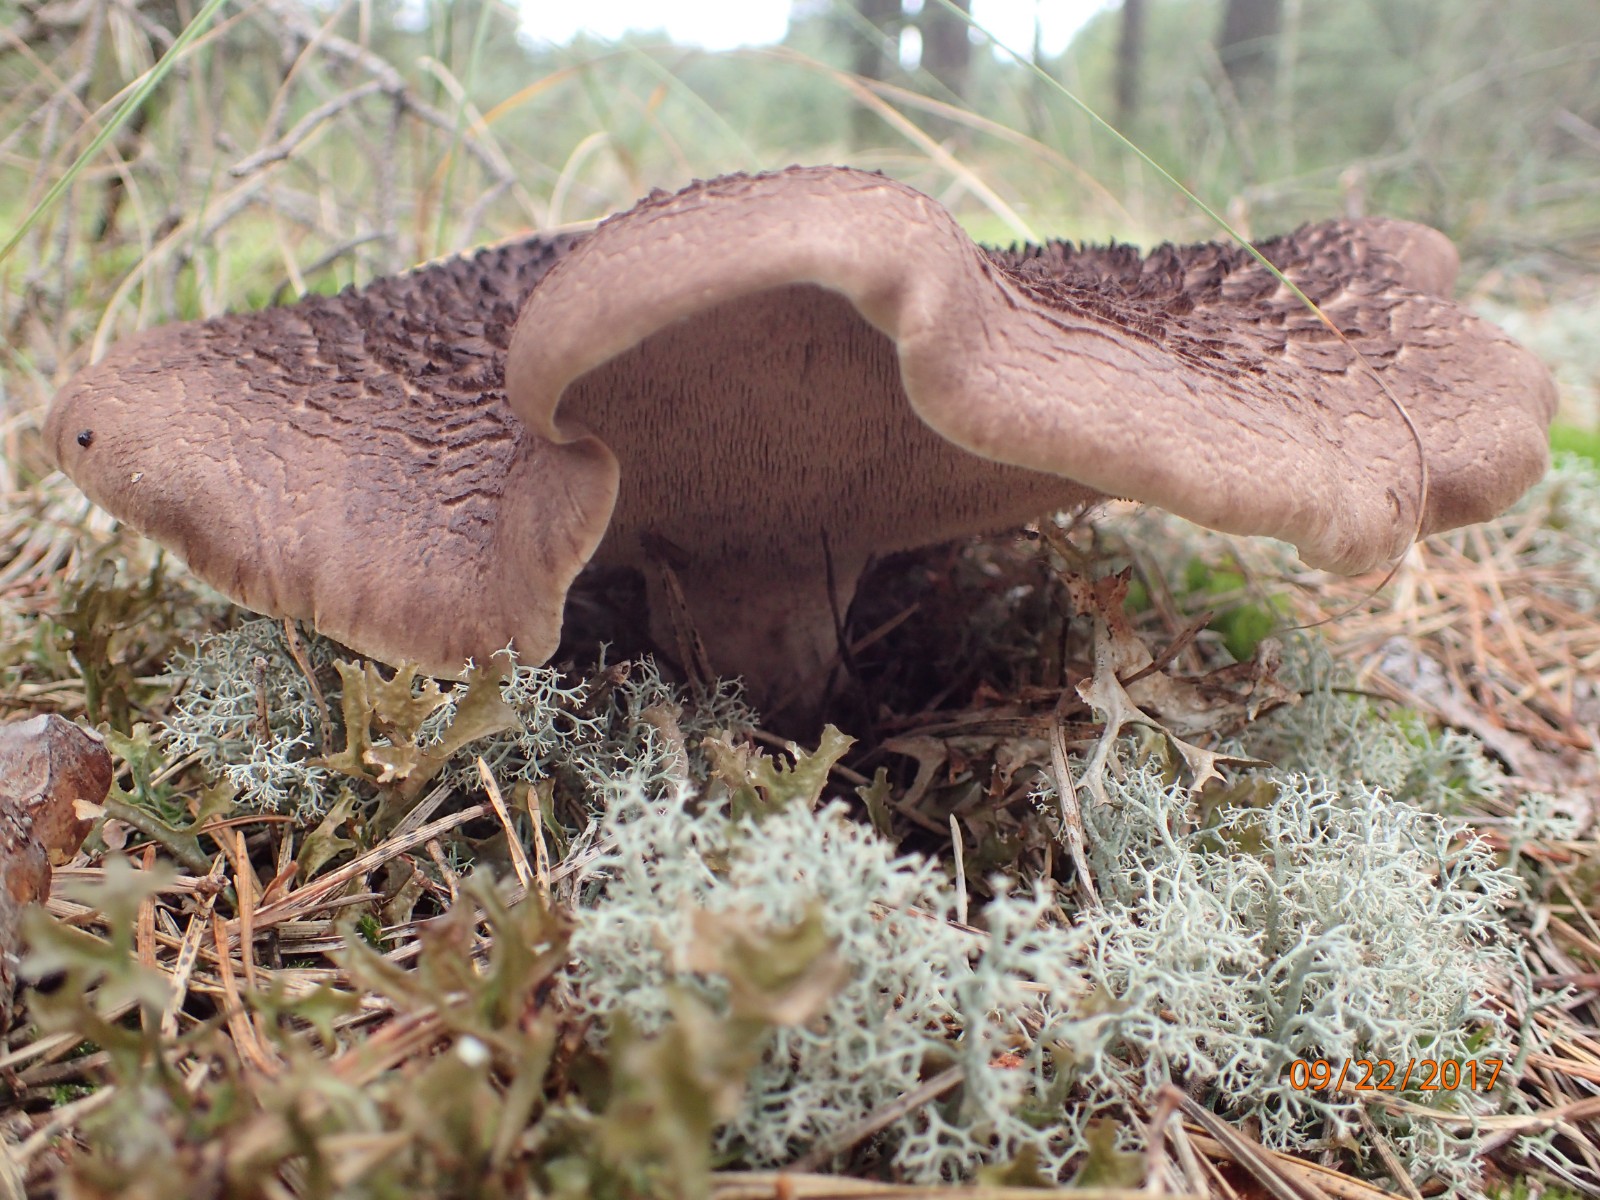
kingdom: Fungi
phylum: Basidiomycota
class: Agaricomycetes
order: Thelephorales
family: Bankeraceae
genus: Sarcodon
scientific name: Sarcodon squamosus
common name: småskællet kødpigsvamp
